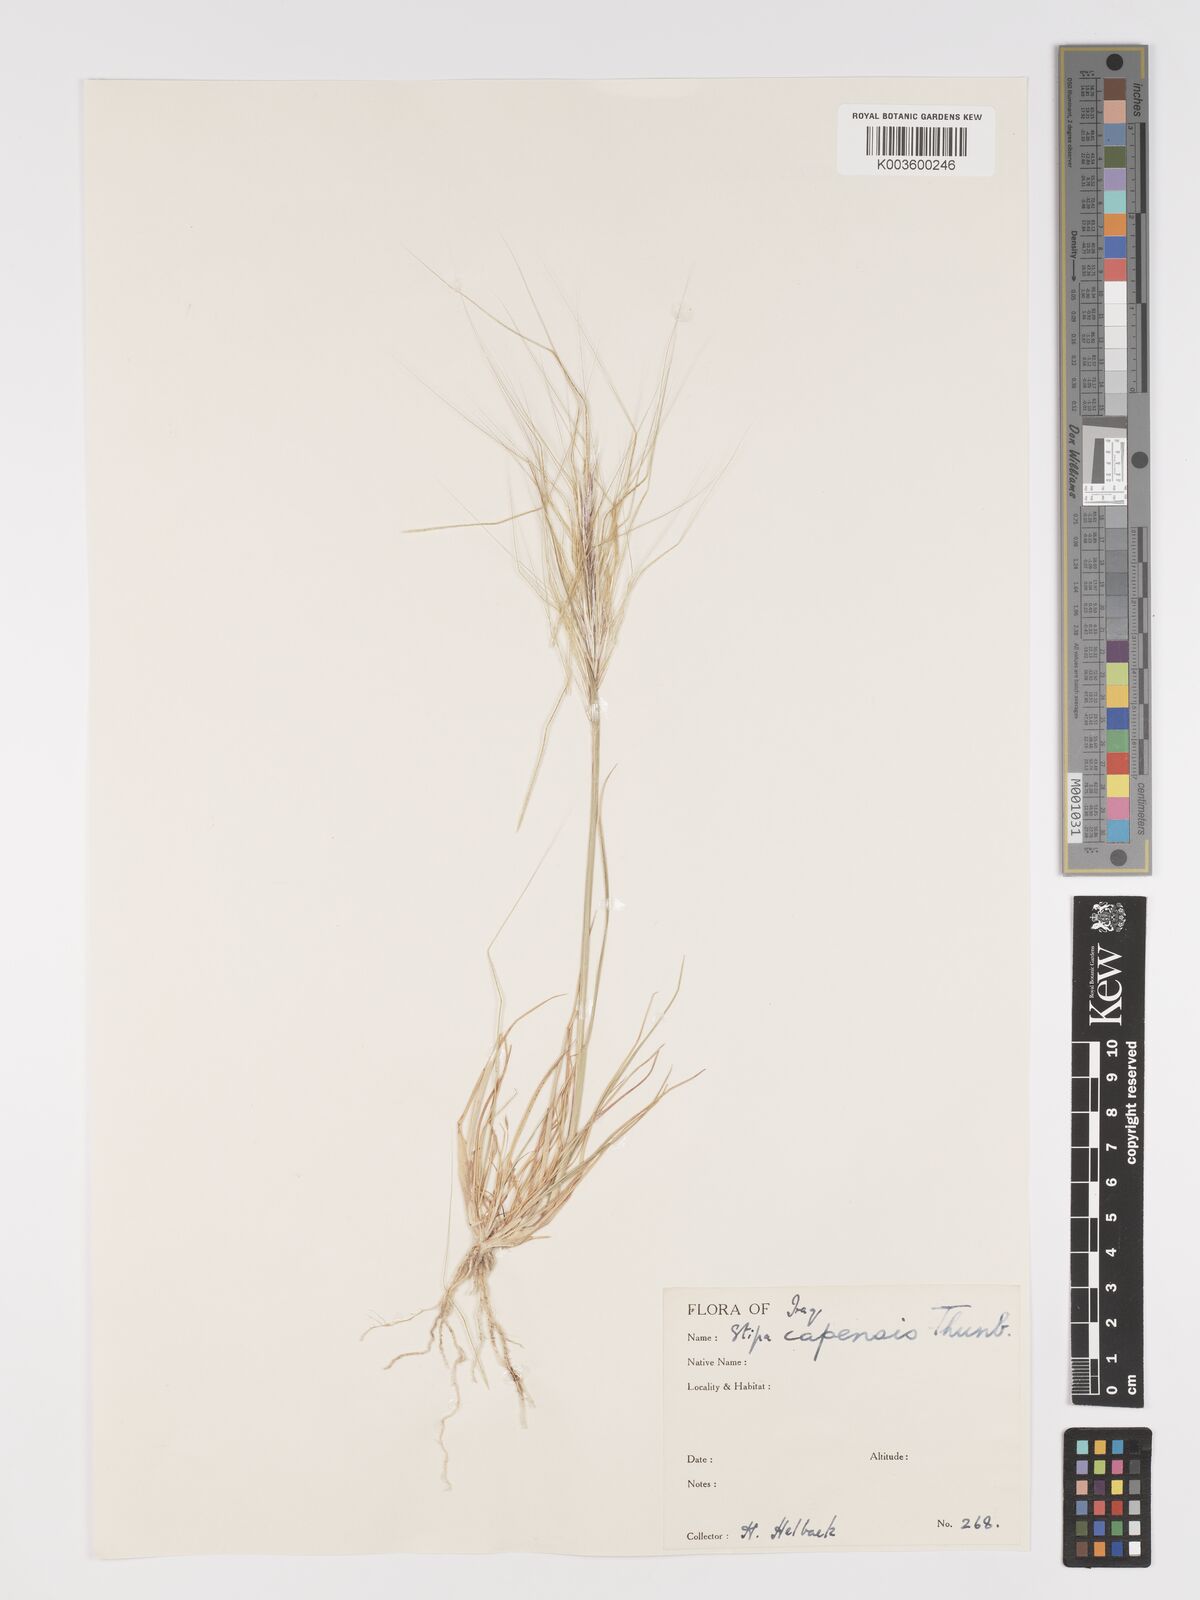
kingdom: Plantae
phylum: Tracheophyta
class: Liliopsida
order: Poales
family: Poaceae
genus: Stipellula
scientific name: Stipellula capensis
